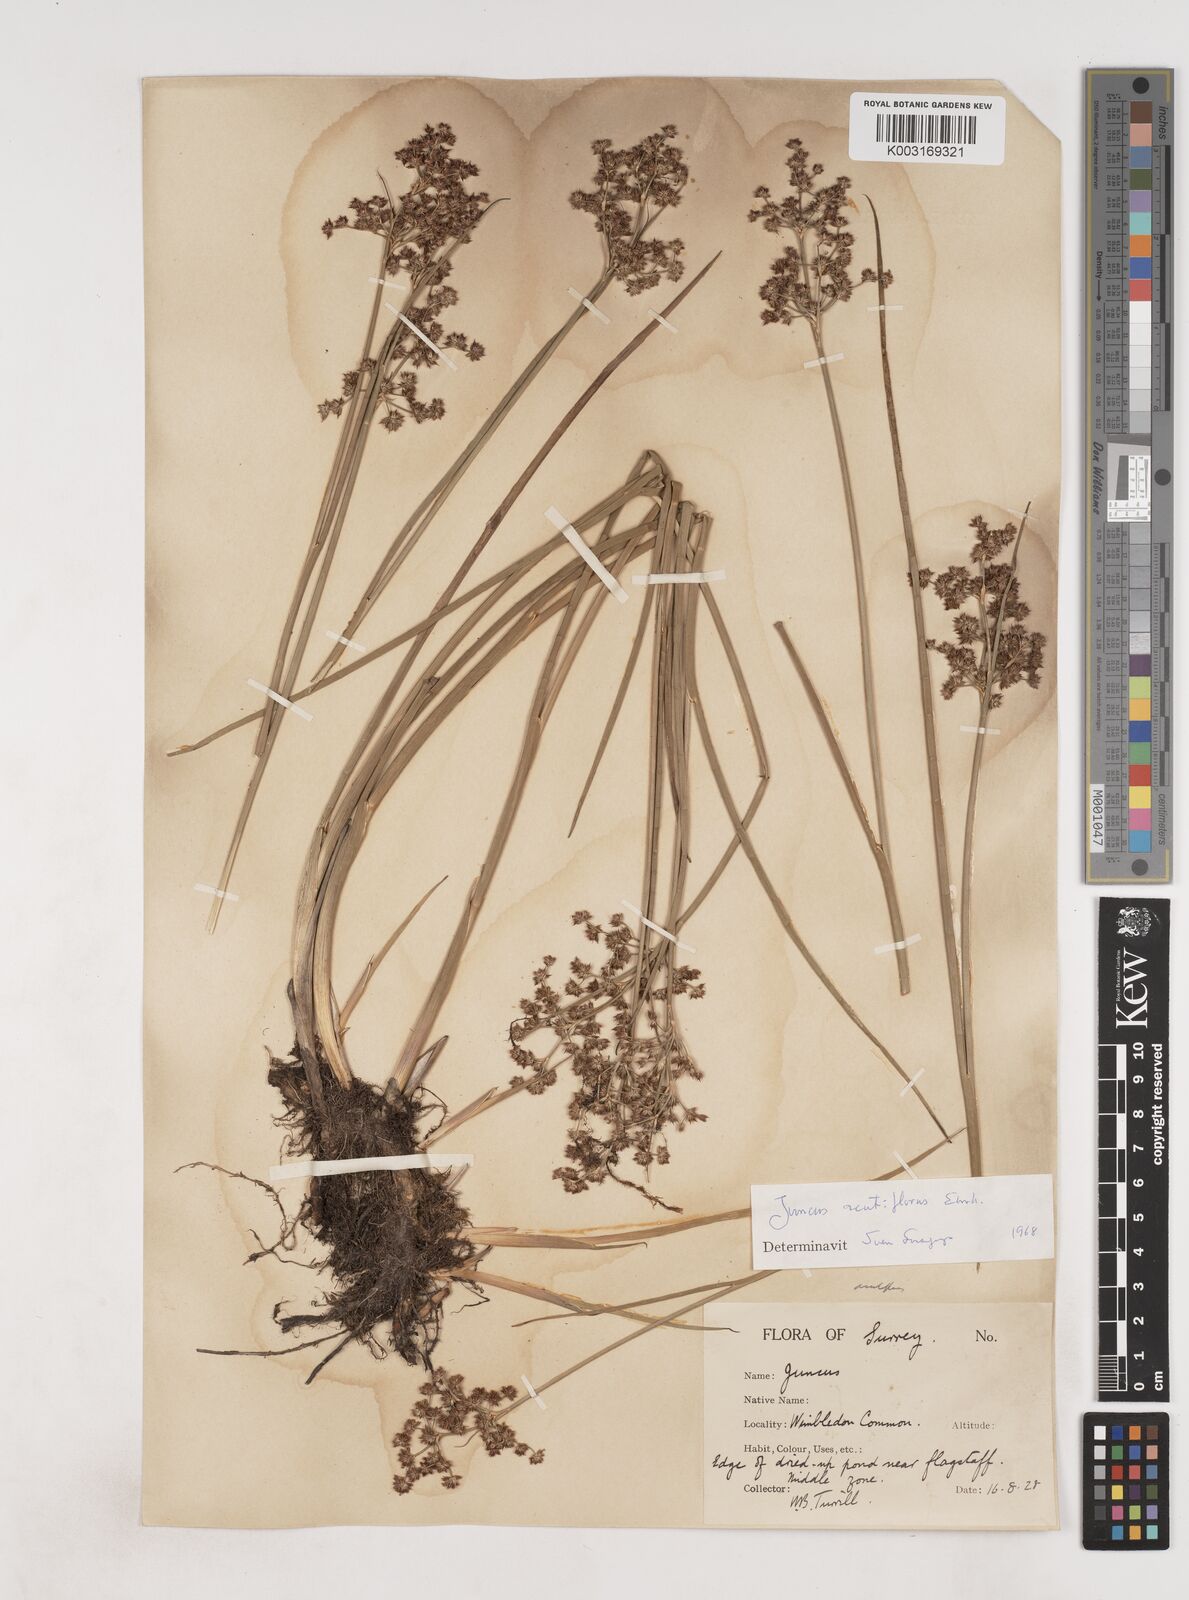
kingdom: Plantae
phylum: Tracheophyta
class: Liliopsida
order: Poales
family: Juncaceae
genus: Juncus
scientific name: Juncus acutiflorus
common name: Sharp-flowered rush
